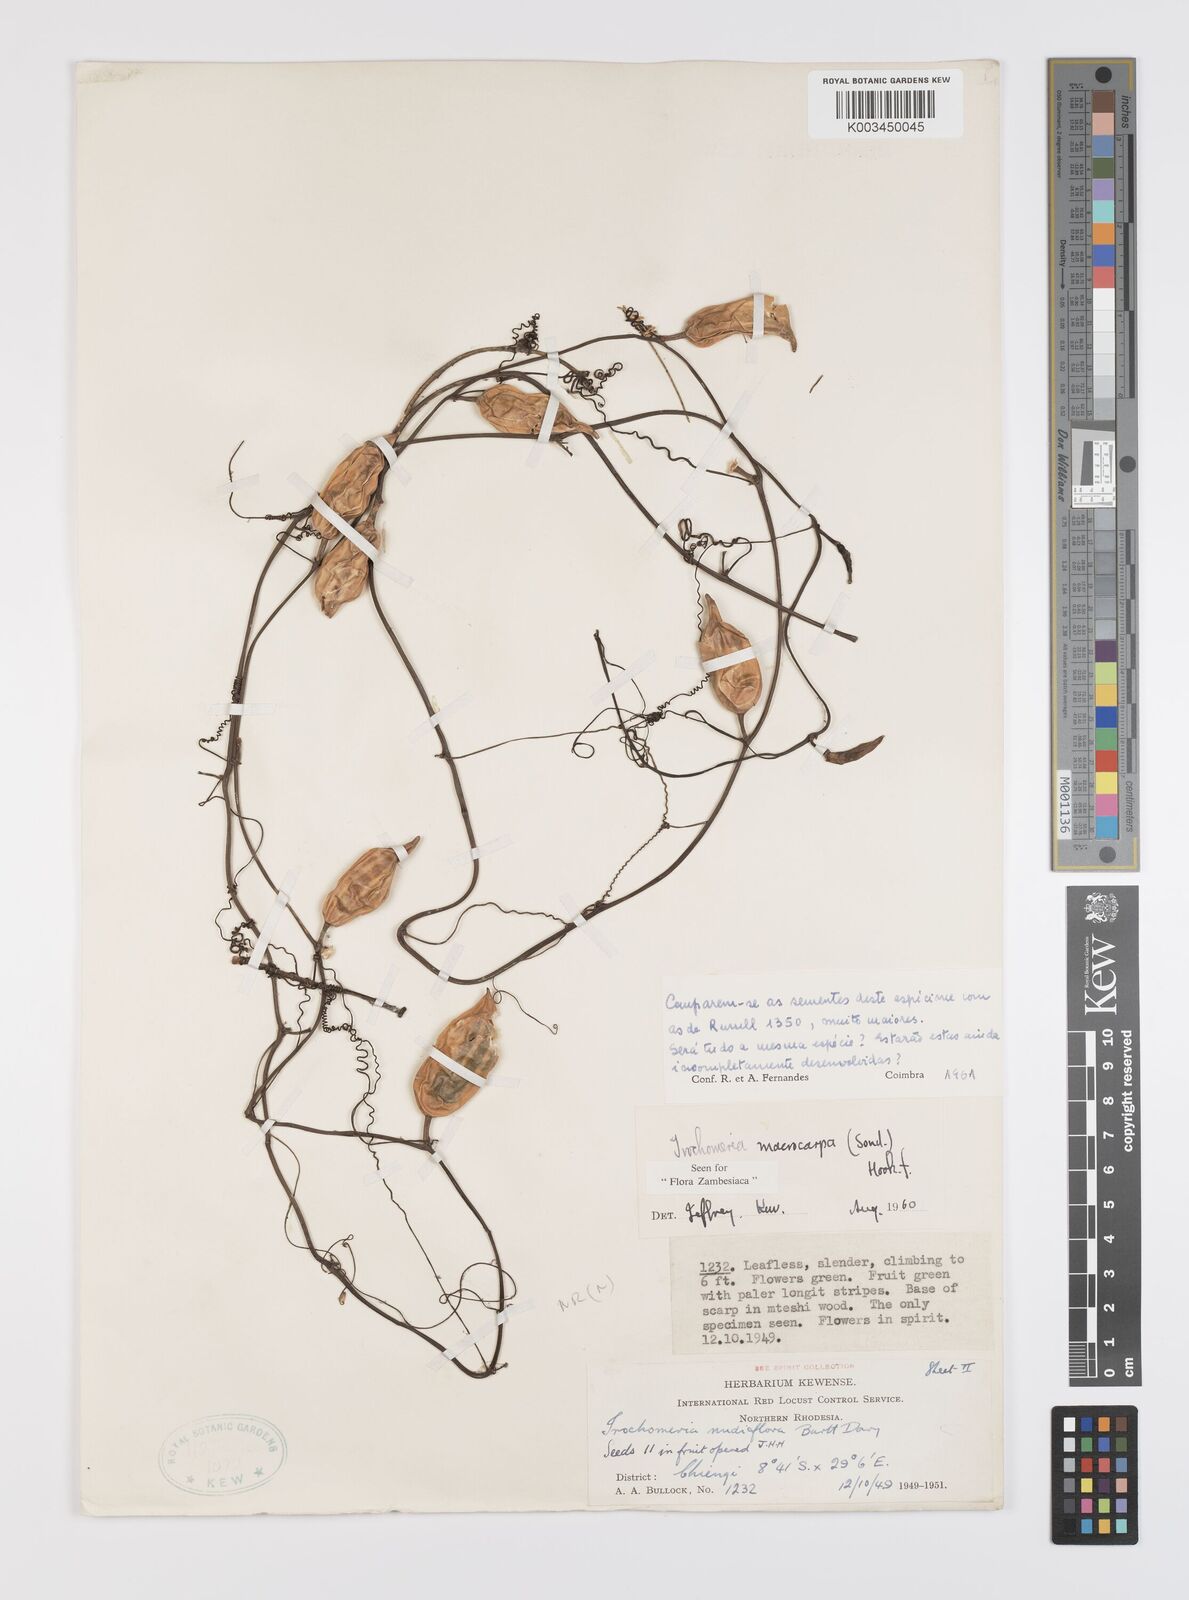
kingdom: Plantae
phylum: Tracheophyta
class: Magnoliopsida
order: Cucurbitales
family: Cucurbitaceae
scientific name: Cucurbitaceae
